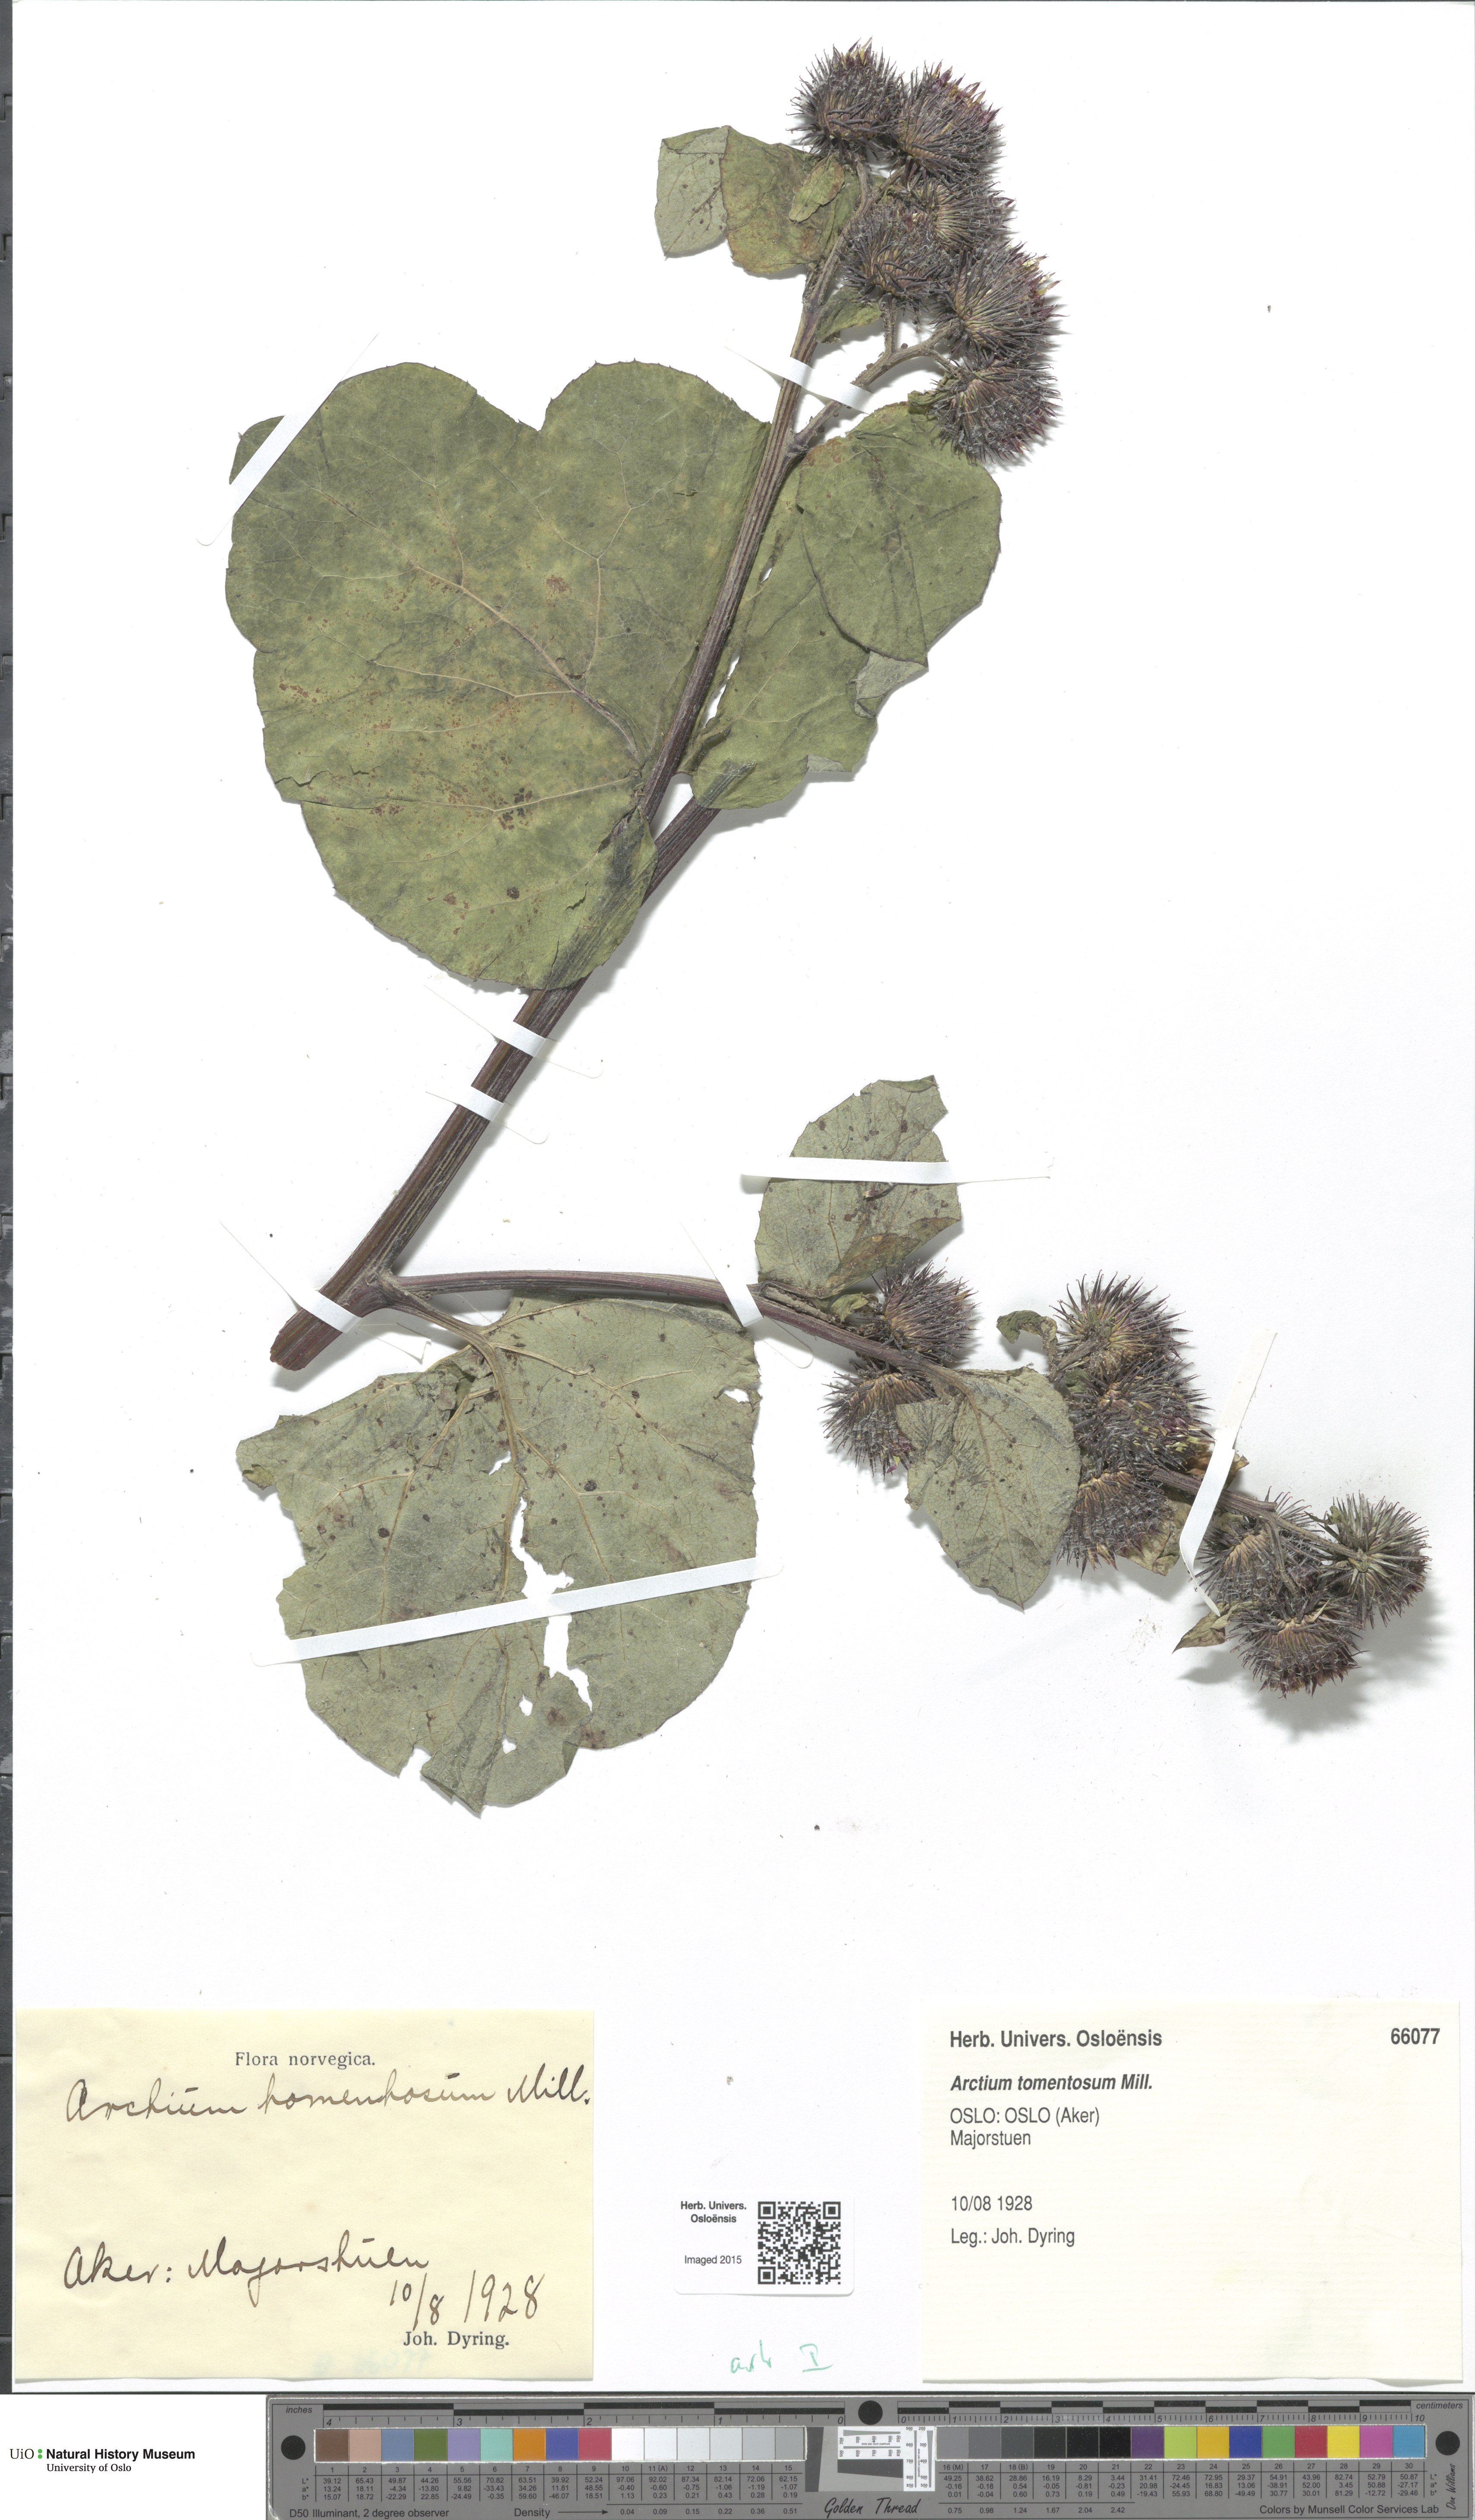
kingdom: Plantae
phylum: Tracheophyta
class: Magnoliopsida
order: Asterales
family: Asteraceae
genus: Arctium
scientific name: Arctium tomentosum
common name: Woolly burdock
